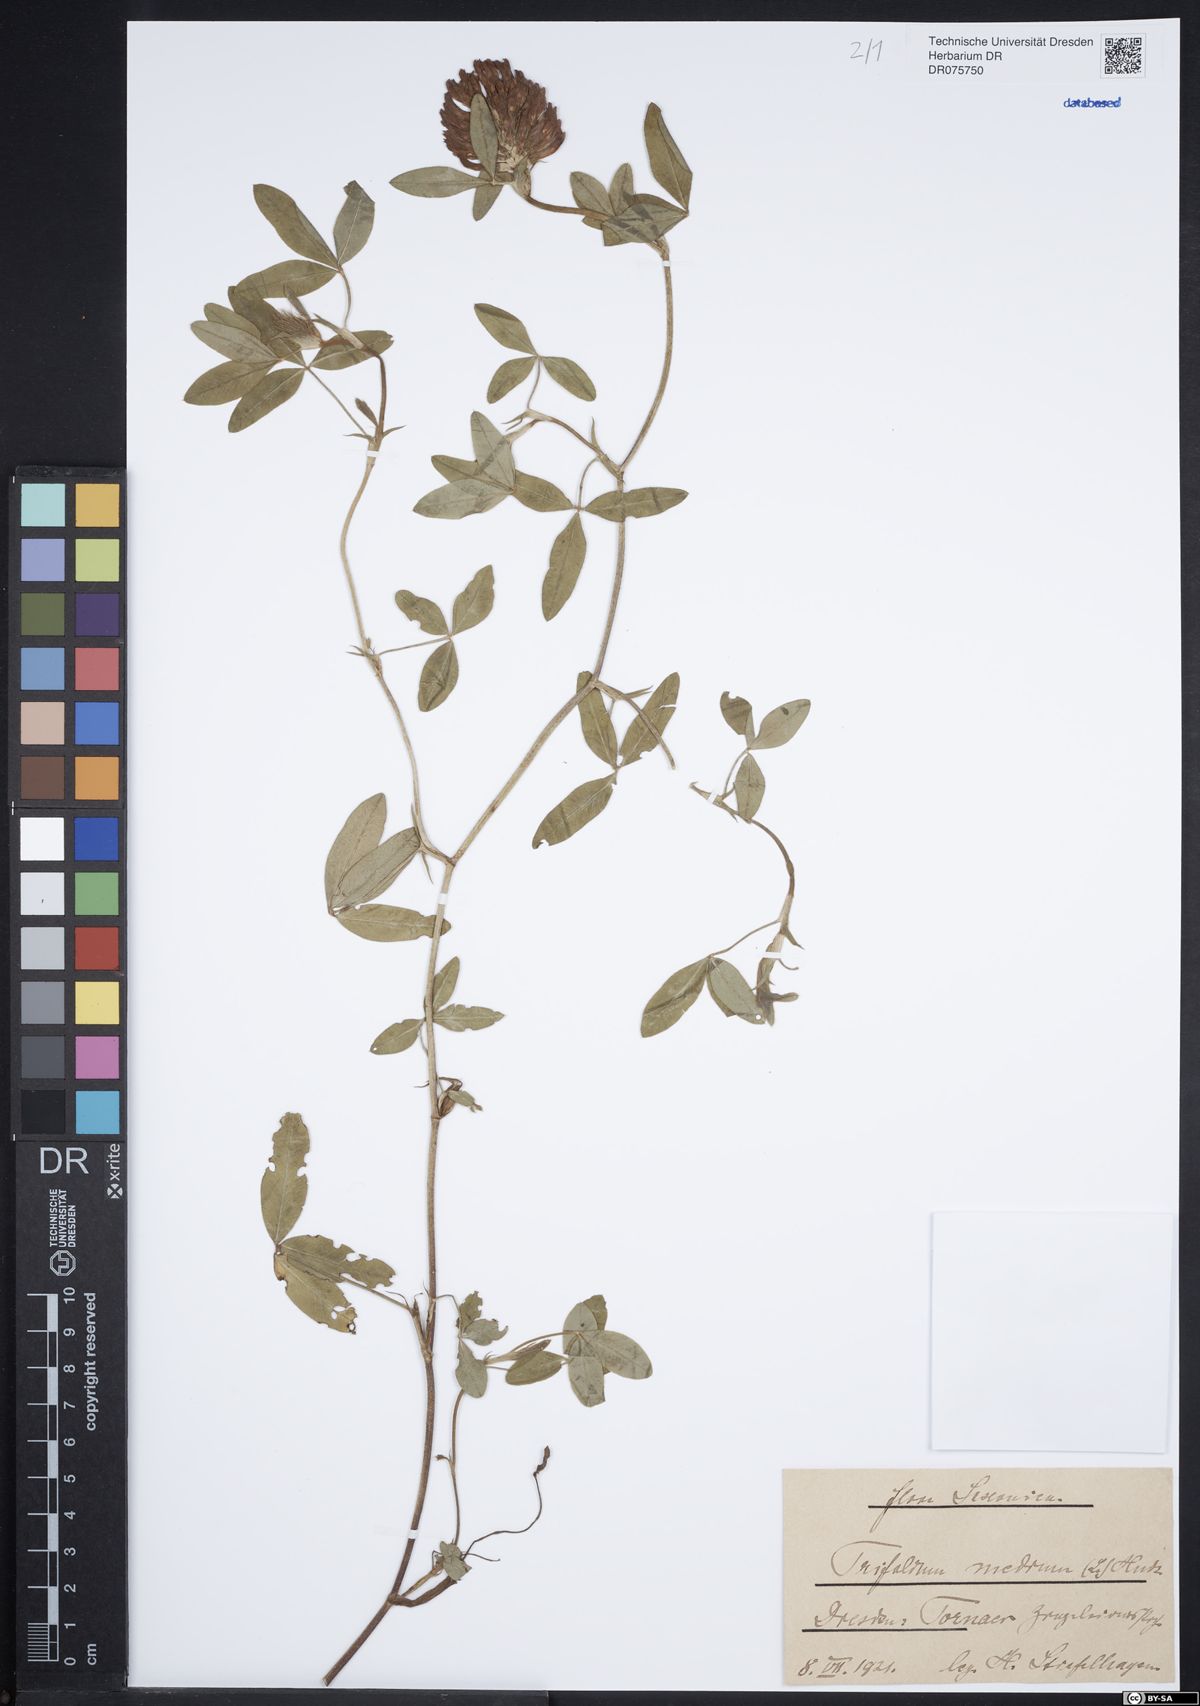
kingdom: Plantae
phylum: Tracheophyta
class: Magnoliopsida
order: Fabales
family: Fabaceae
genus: Trifolium
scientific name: Trifolium medium
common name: Zigzag clover
